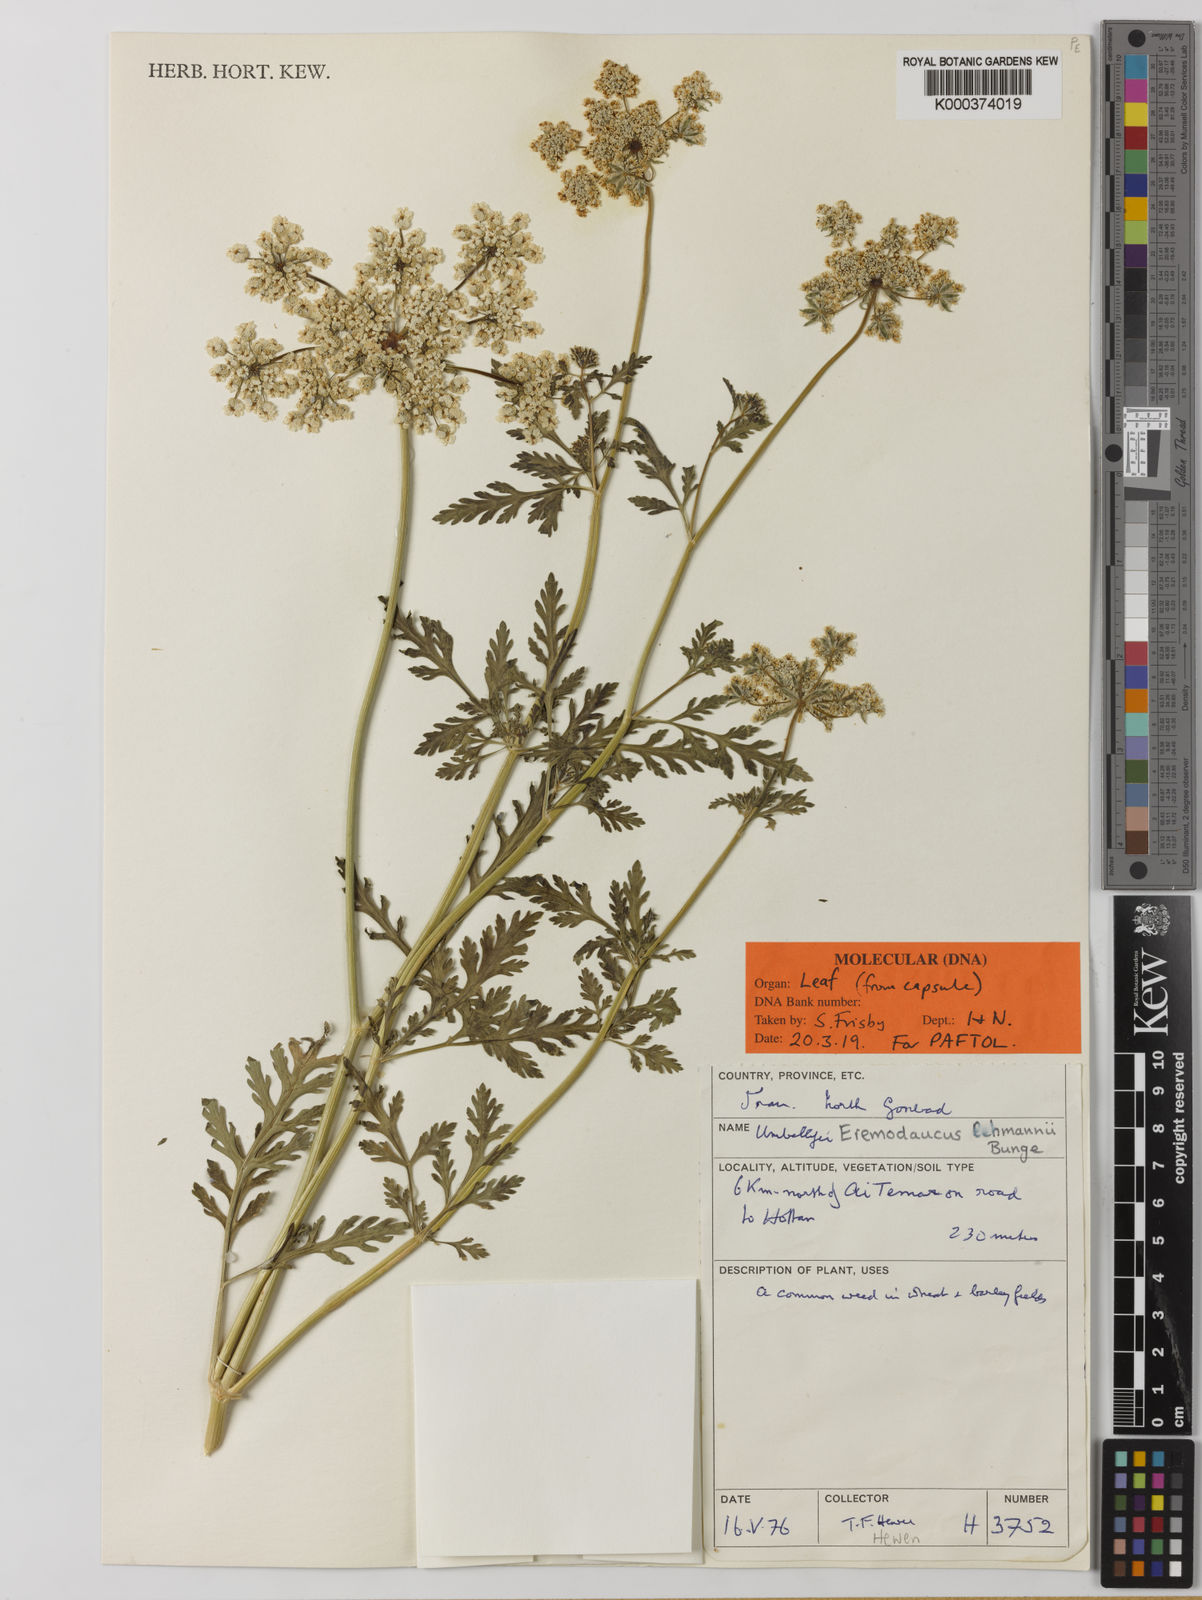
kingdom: Plantae
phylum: Tracheophyta
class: Magnoliopsida
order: Apiales
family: Apiaceae
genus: Eremodaucus
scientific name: Eremodaucus lehmannii
